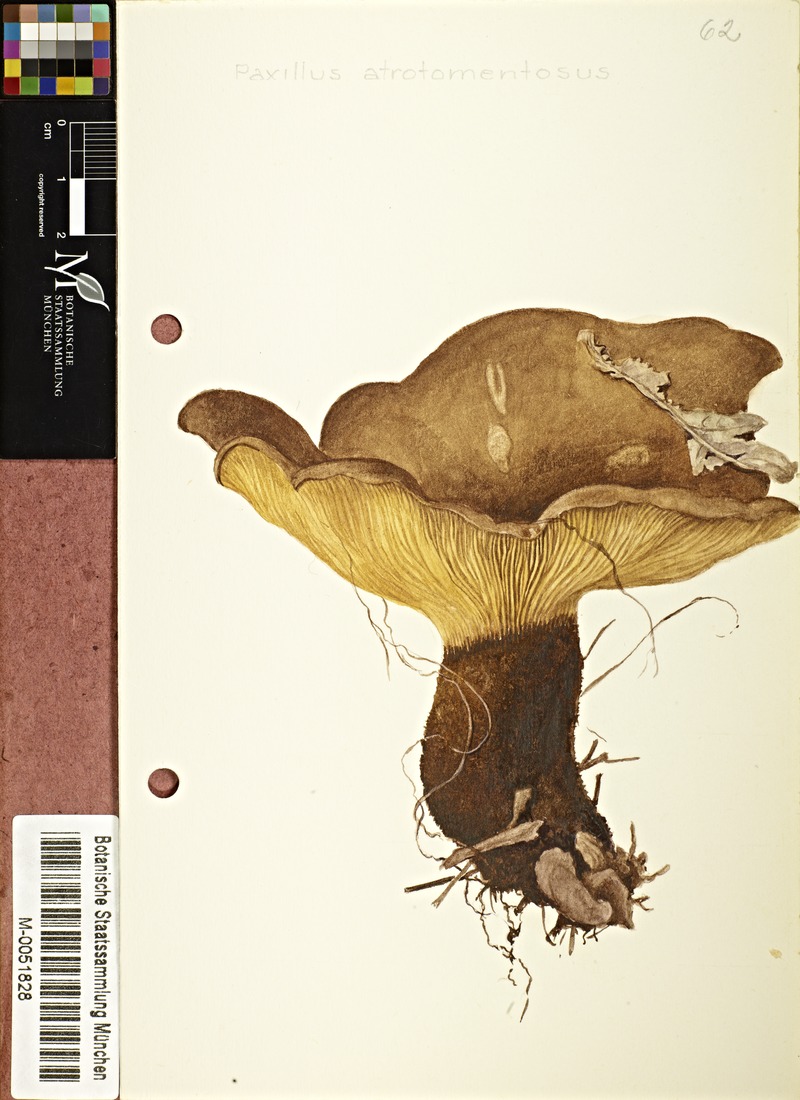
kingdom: Fungi
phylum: Basidiomycota
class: Agaricomycetes
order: Boletales
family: Tapinellaceae
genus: Tapinella
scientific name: Tapinella atrotomentosa
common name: Velvet rollrim
